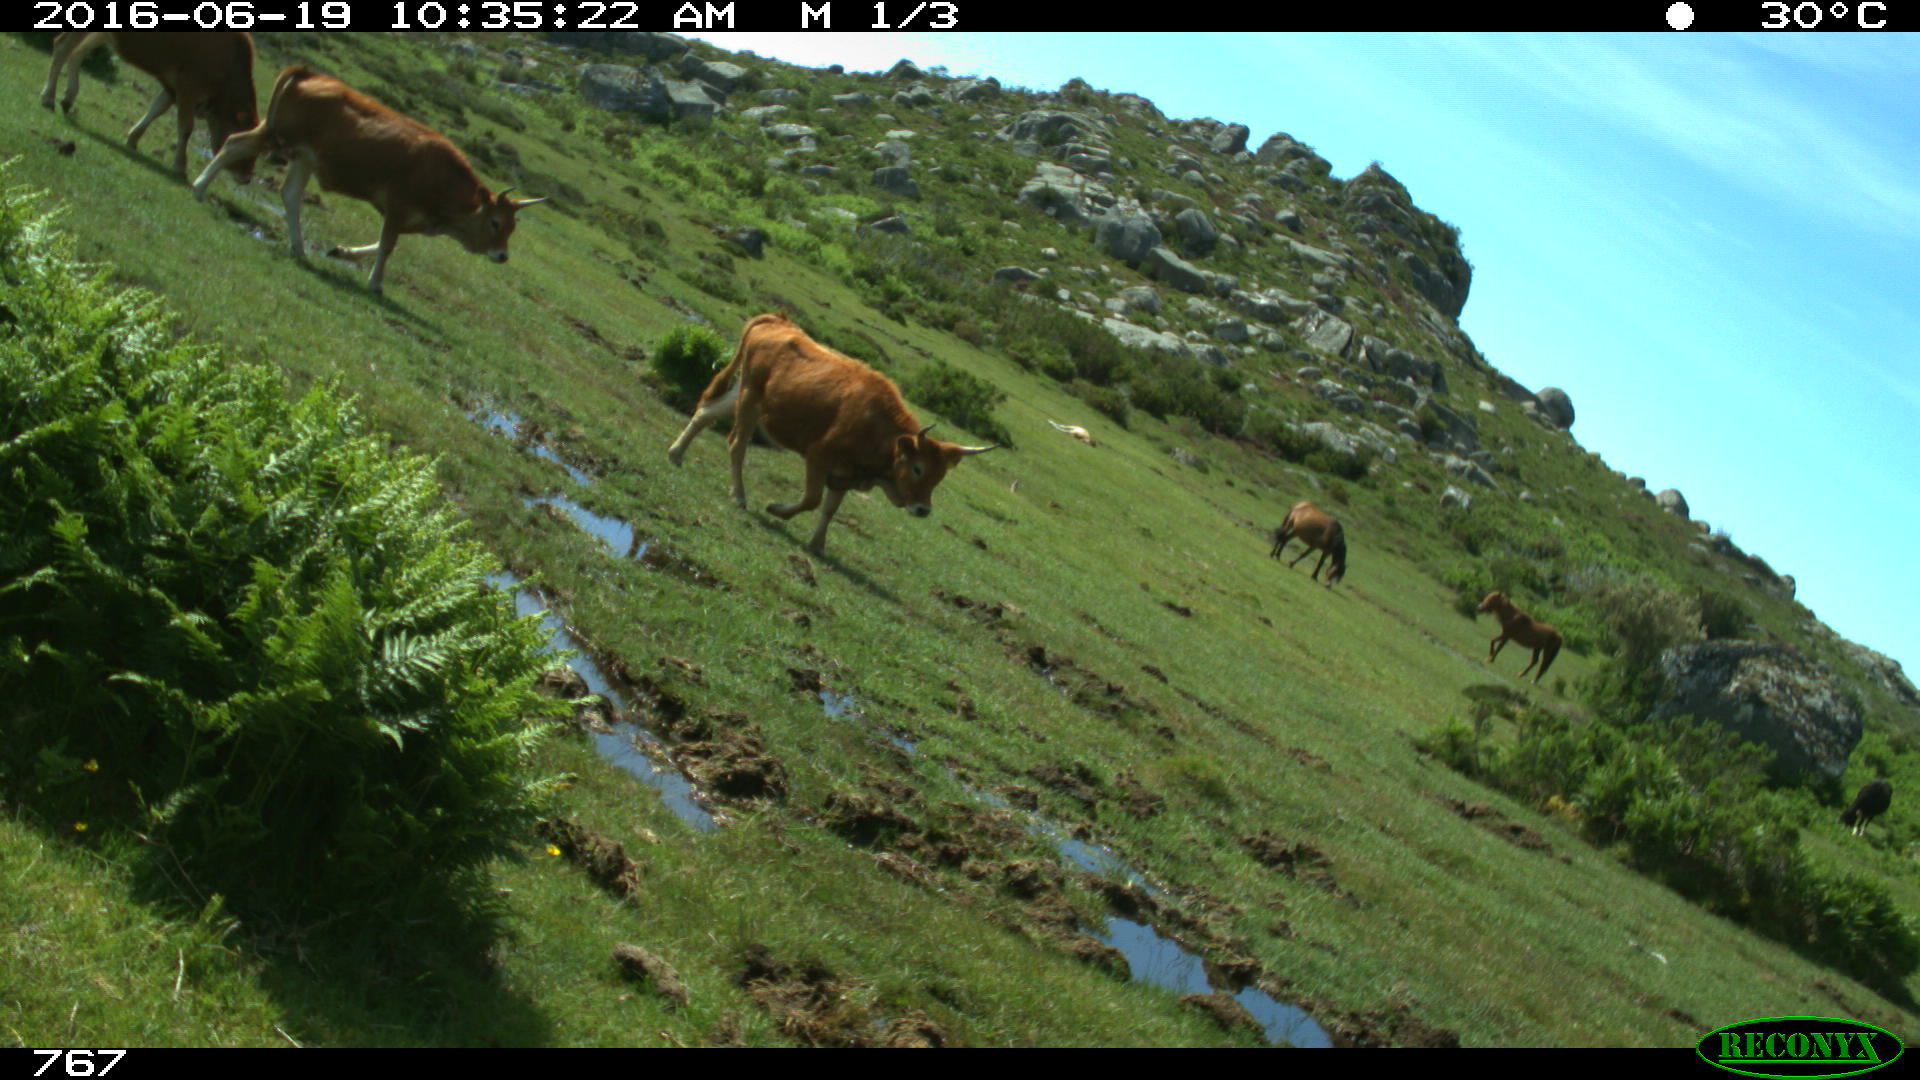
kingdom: Animalia
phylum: Chordata
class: Mammalia
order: Perissodactyla
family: Equidae
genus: Equus
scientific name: Equus caballus
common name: Horse
